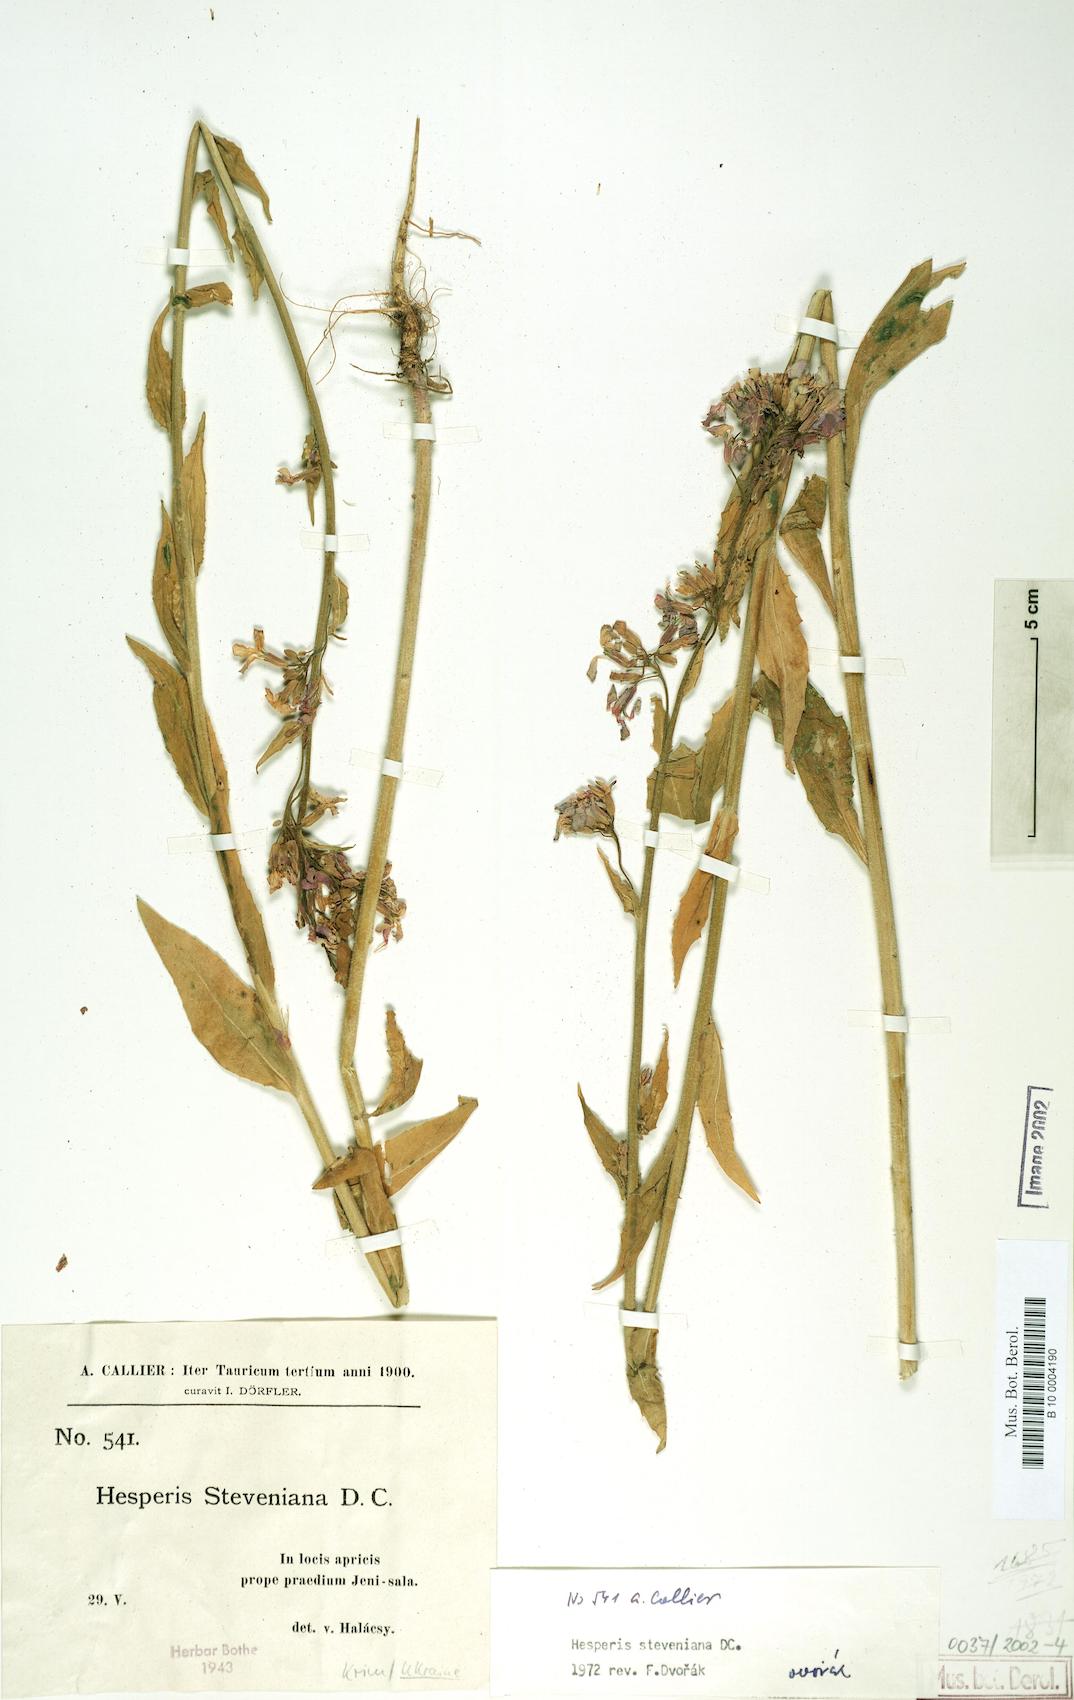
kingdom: Plantae
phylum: Tracheophyta
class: Magnoliopsida
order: Brassicales
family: Brassicaceae
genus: Hesperis
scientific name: Hesperis steveniana
